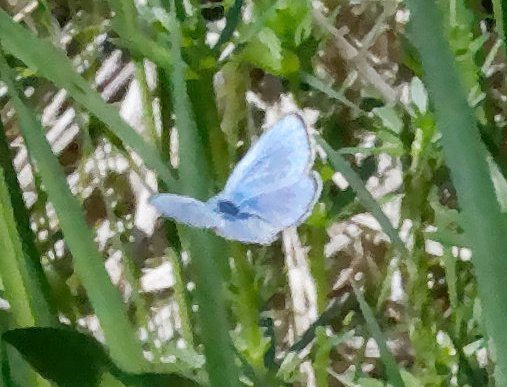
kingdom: Animalia
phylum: Arthropoda
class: Insecta
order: Lepidoptera
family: Lycaenidae
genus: Glaucopsyche
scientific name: Glaucopsyche lygdamus
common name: Silvery Blue
